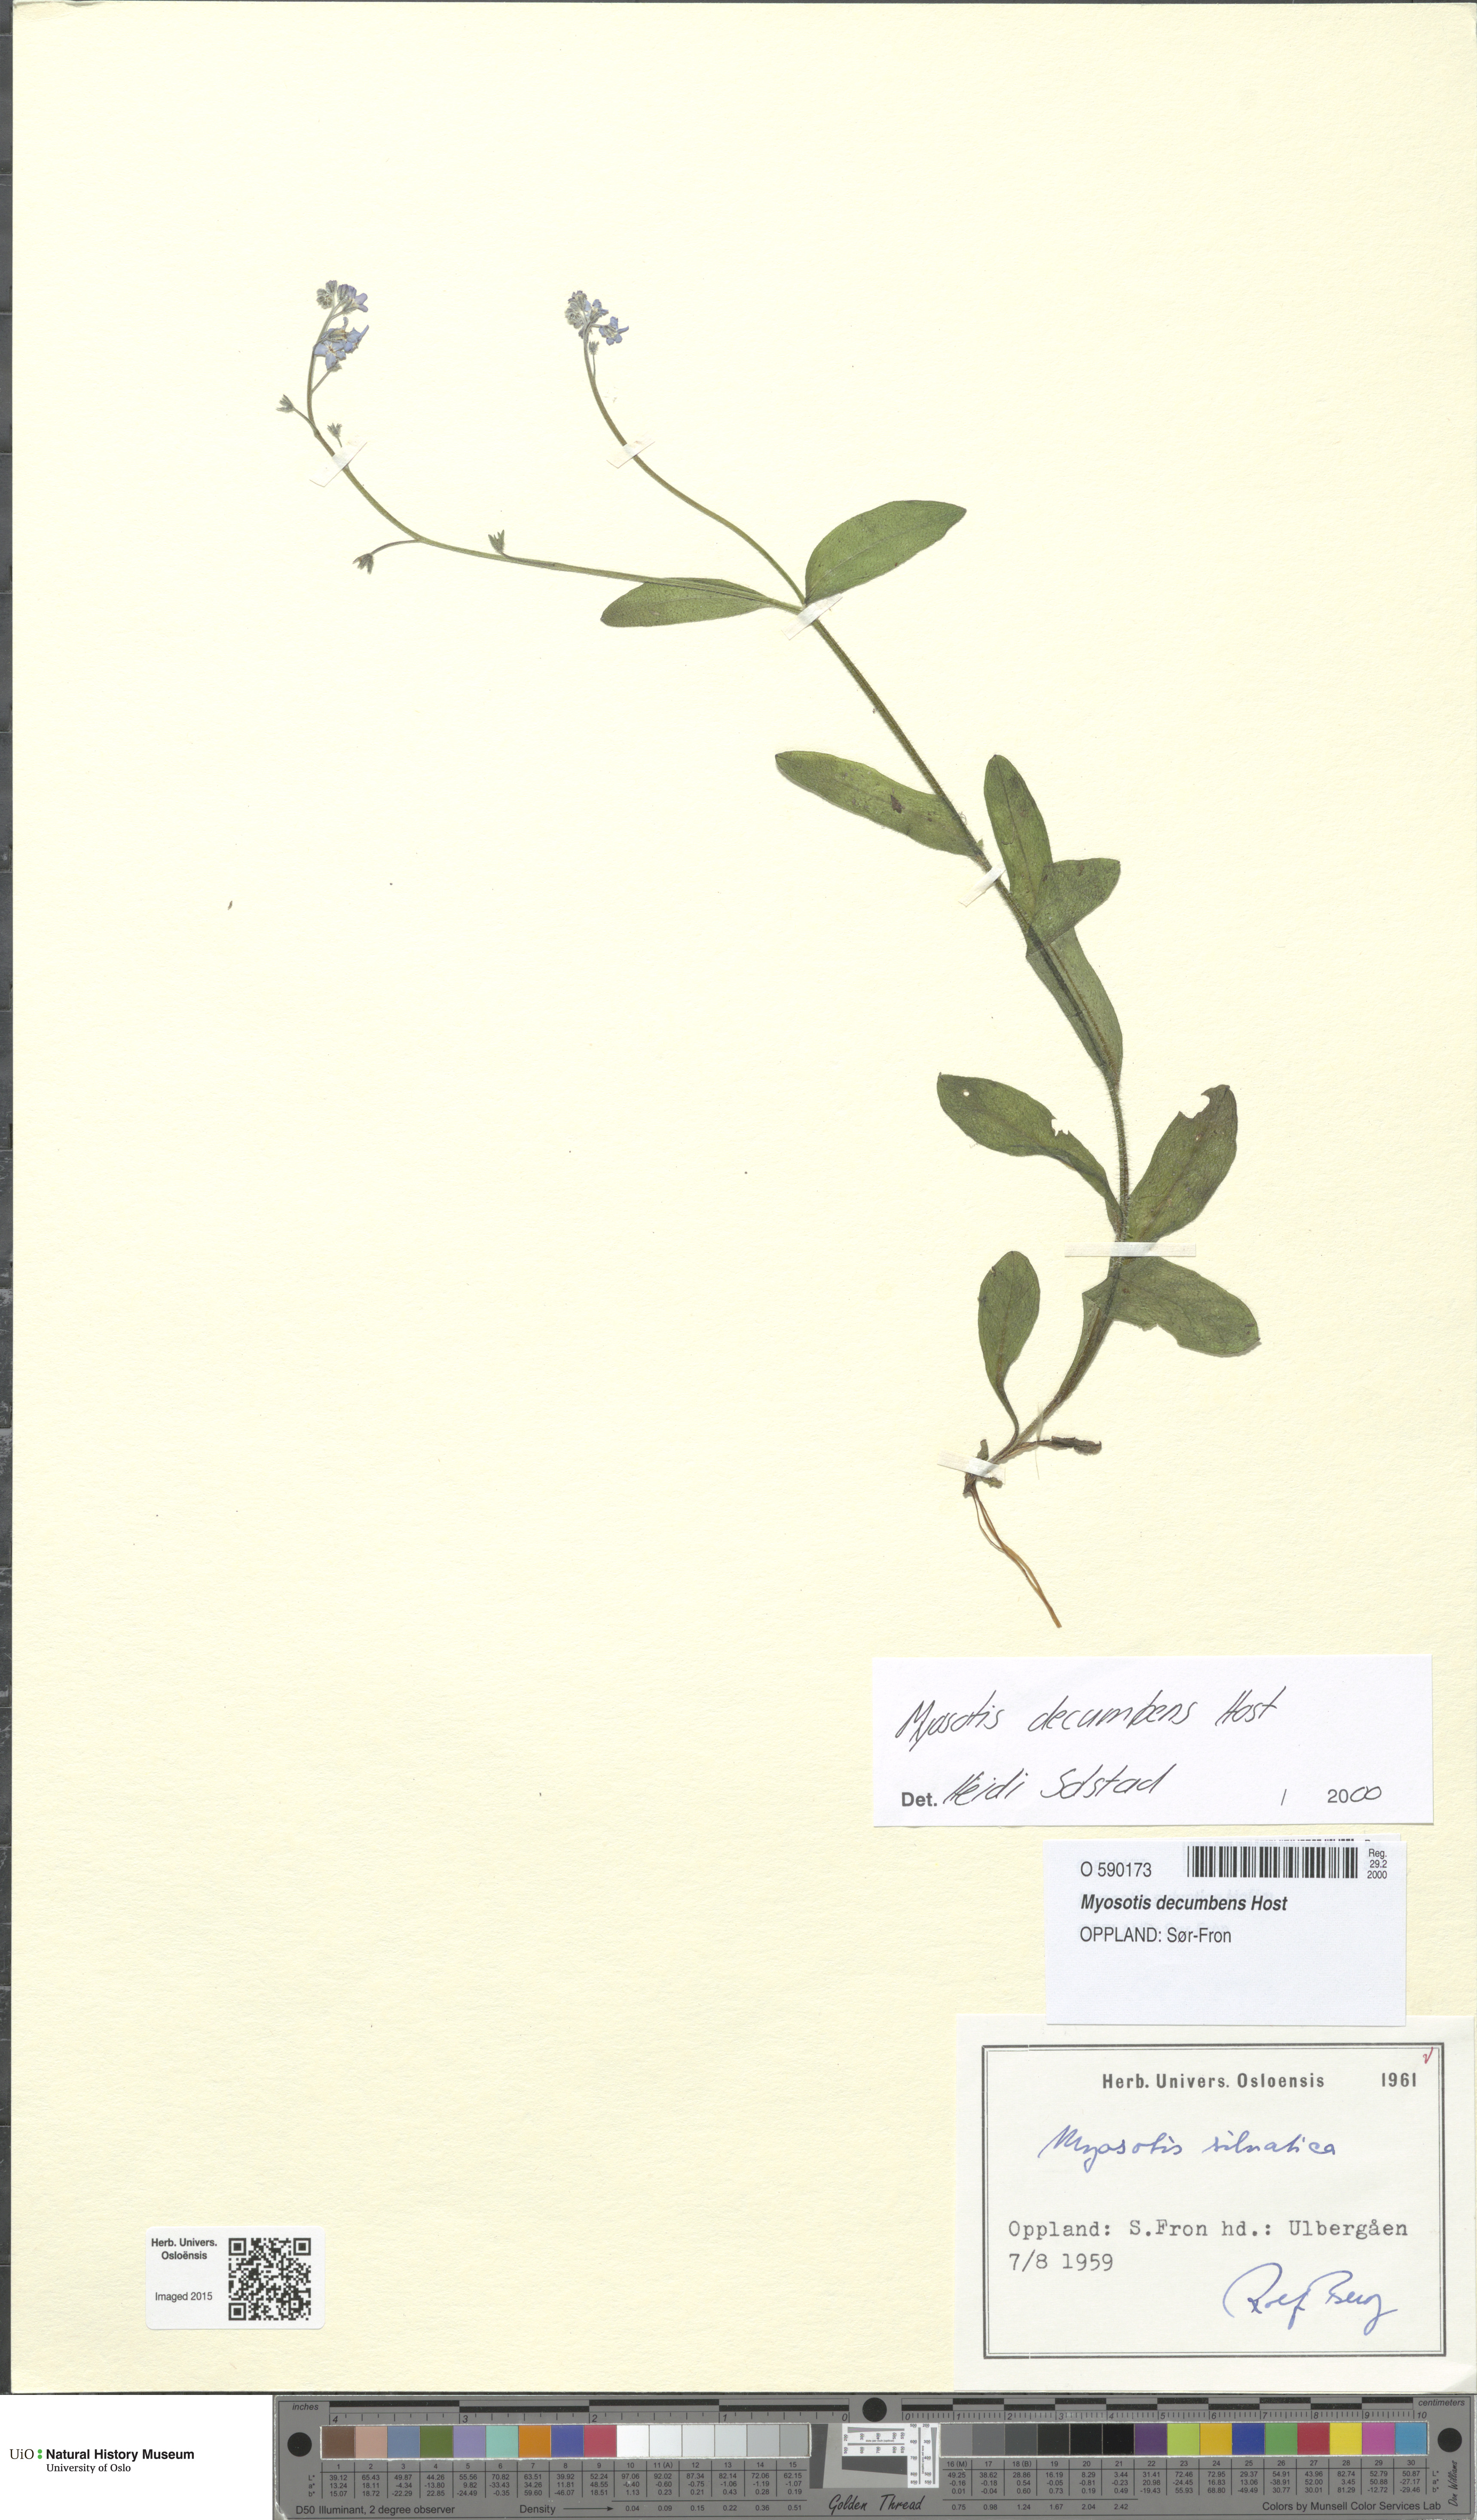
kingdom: Plantae
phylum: Tracheophyta
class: Magnoliopsida
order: Boraginales
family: Boraginaceae
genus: Myosotis
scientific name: Myosotis decumbens
